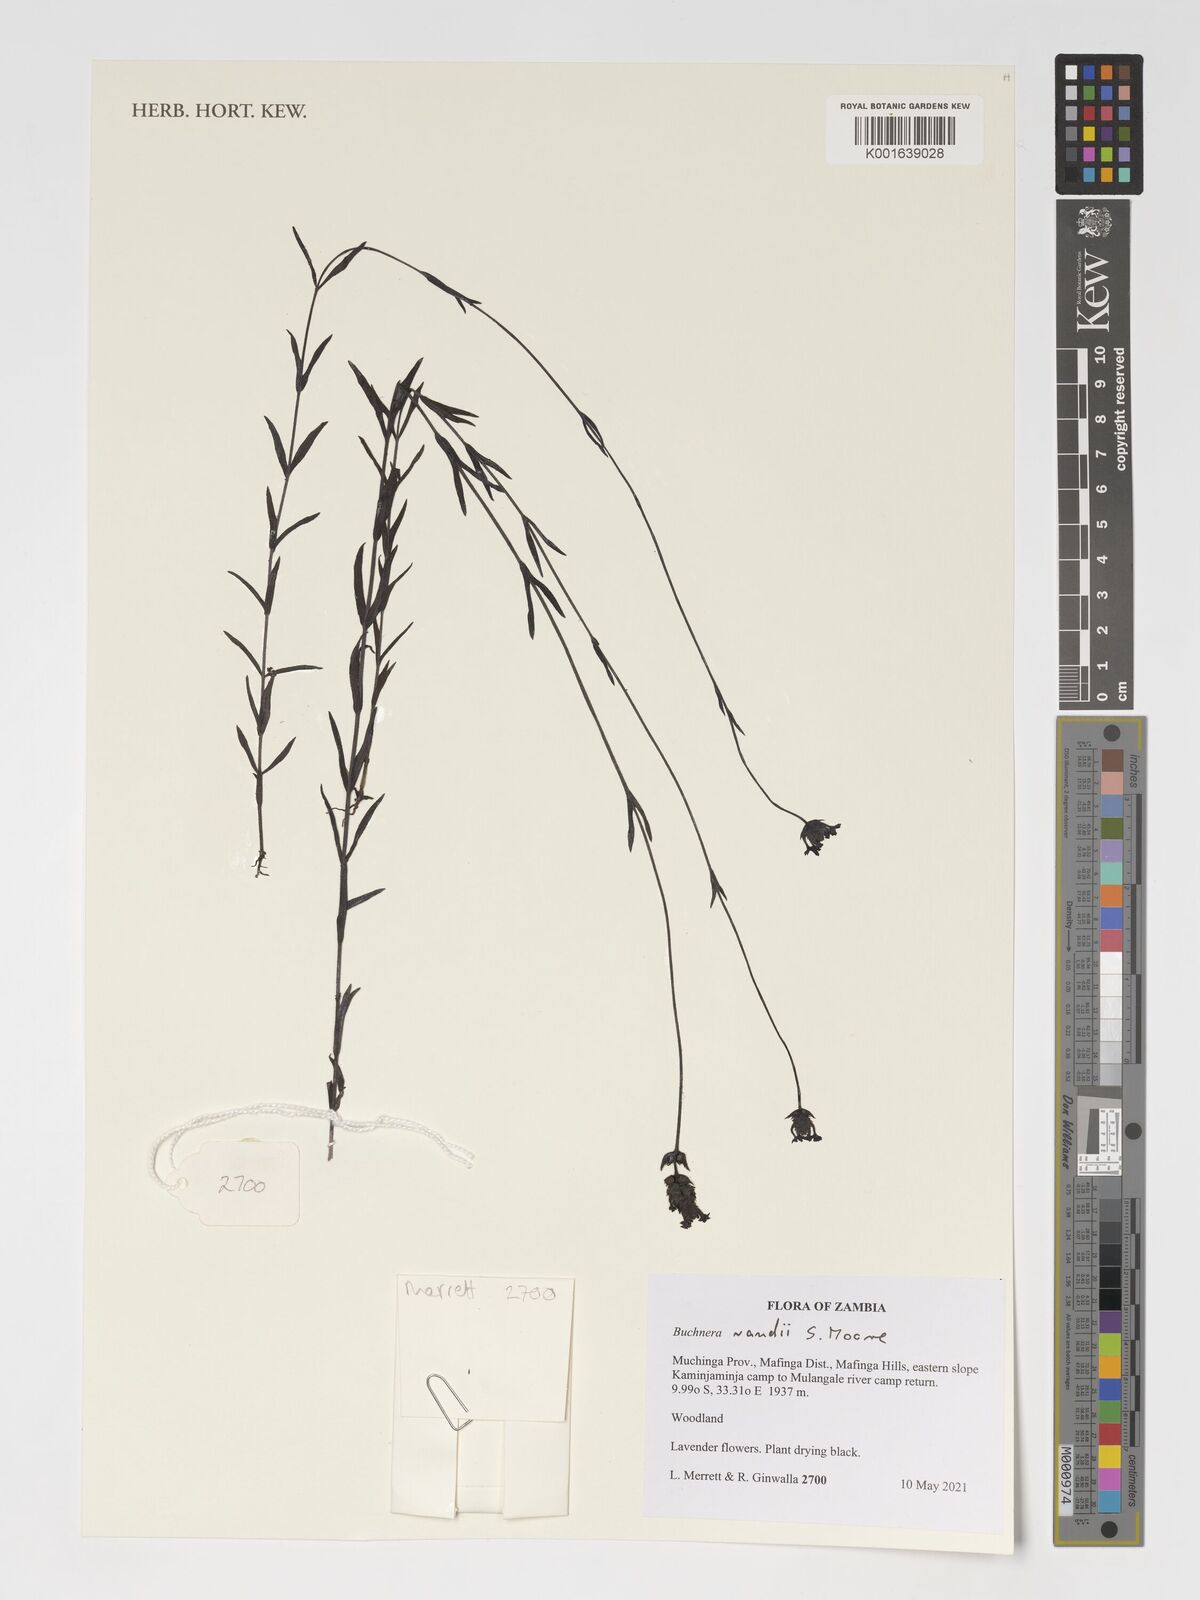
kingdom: Plantae
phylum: Tracheophyta
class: Magnoliopsida
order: Lamiales
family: Orobanchaceae
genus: Buchnera
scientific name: Buchnera randii
